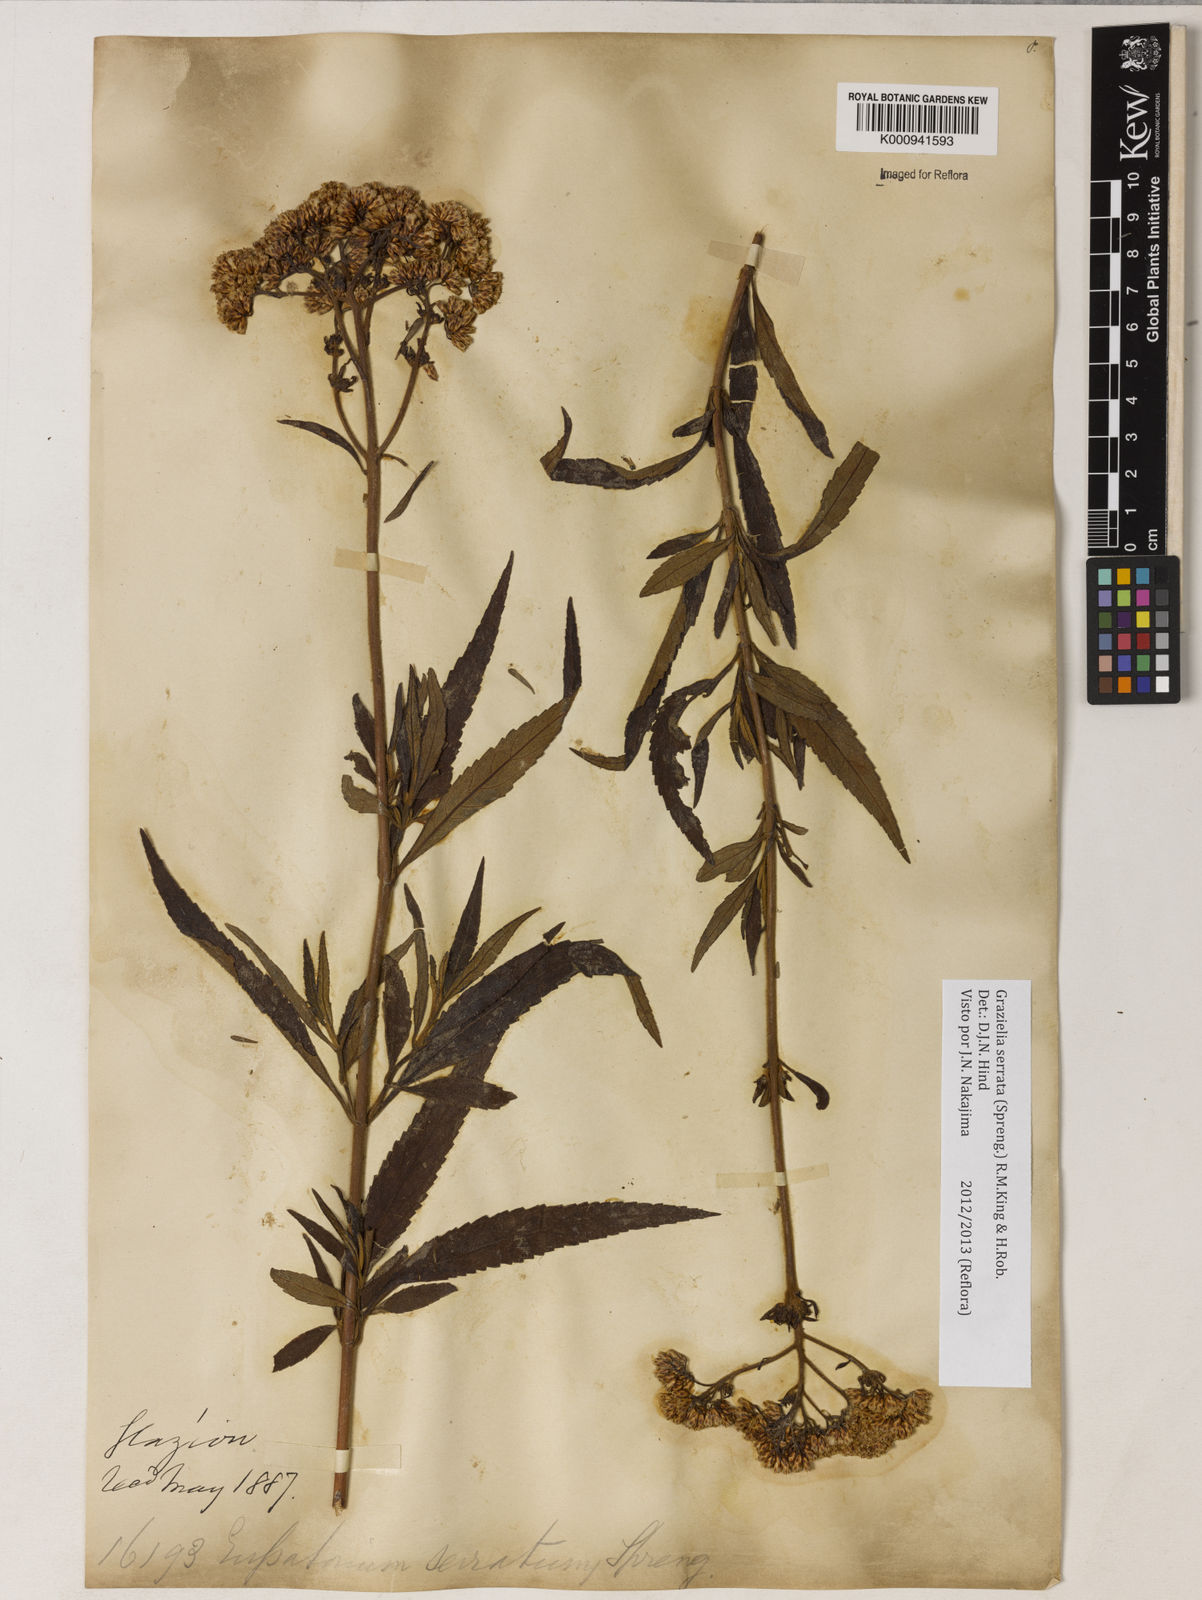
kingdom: Plantae
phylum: Tracheophyta
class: Magnoliopsida
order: Asterales
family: Asteraceae
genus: Grazielia
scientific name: Grazielia serrata
